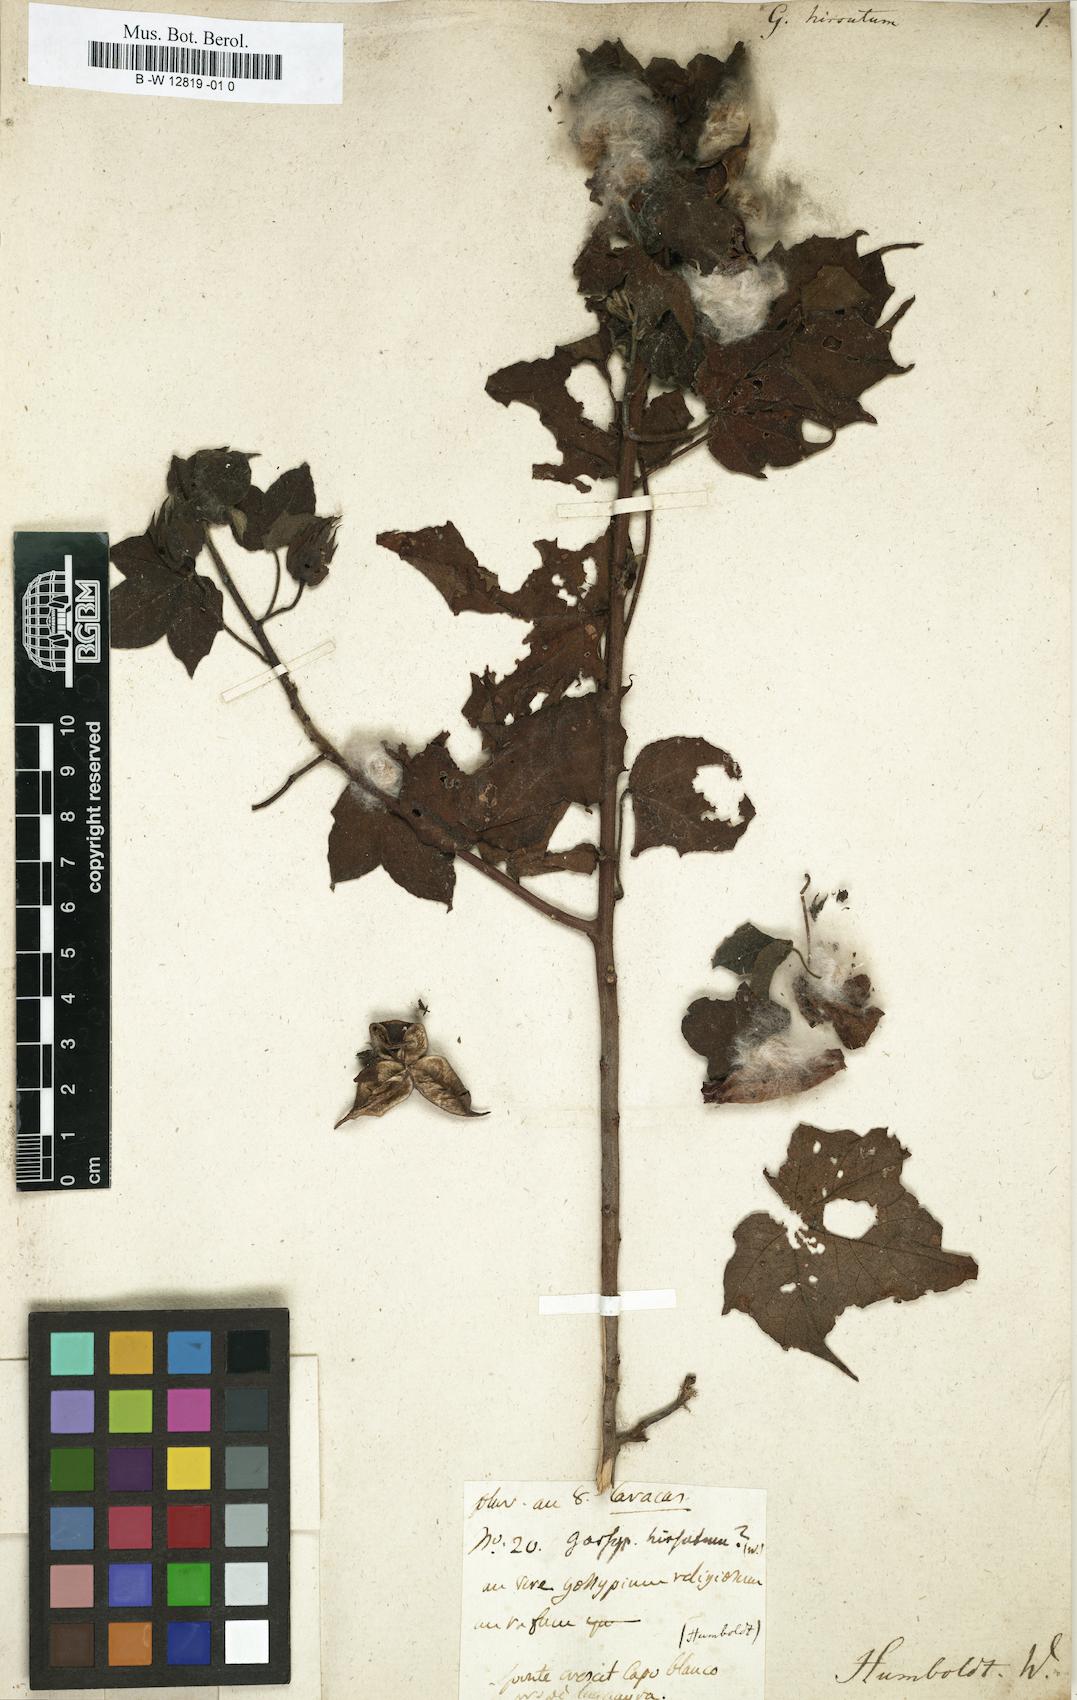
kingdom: Plantae
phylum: Tracheophyta
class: Magnoliopsida
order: Malvales
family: Malvaceae
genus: Gossypium
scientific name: Gossypium hirsutum
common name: Cotton
